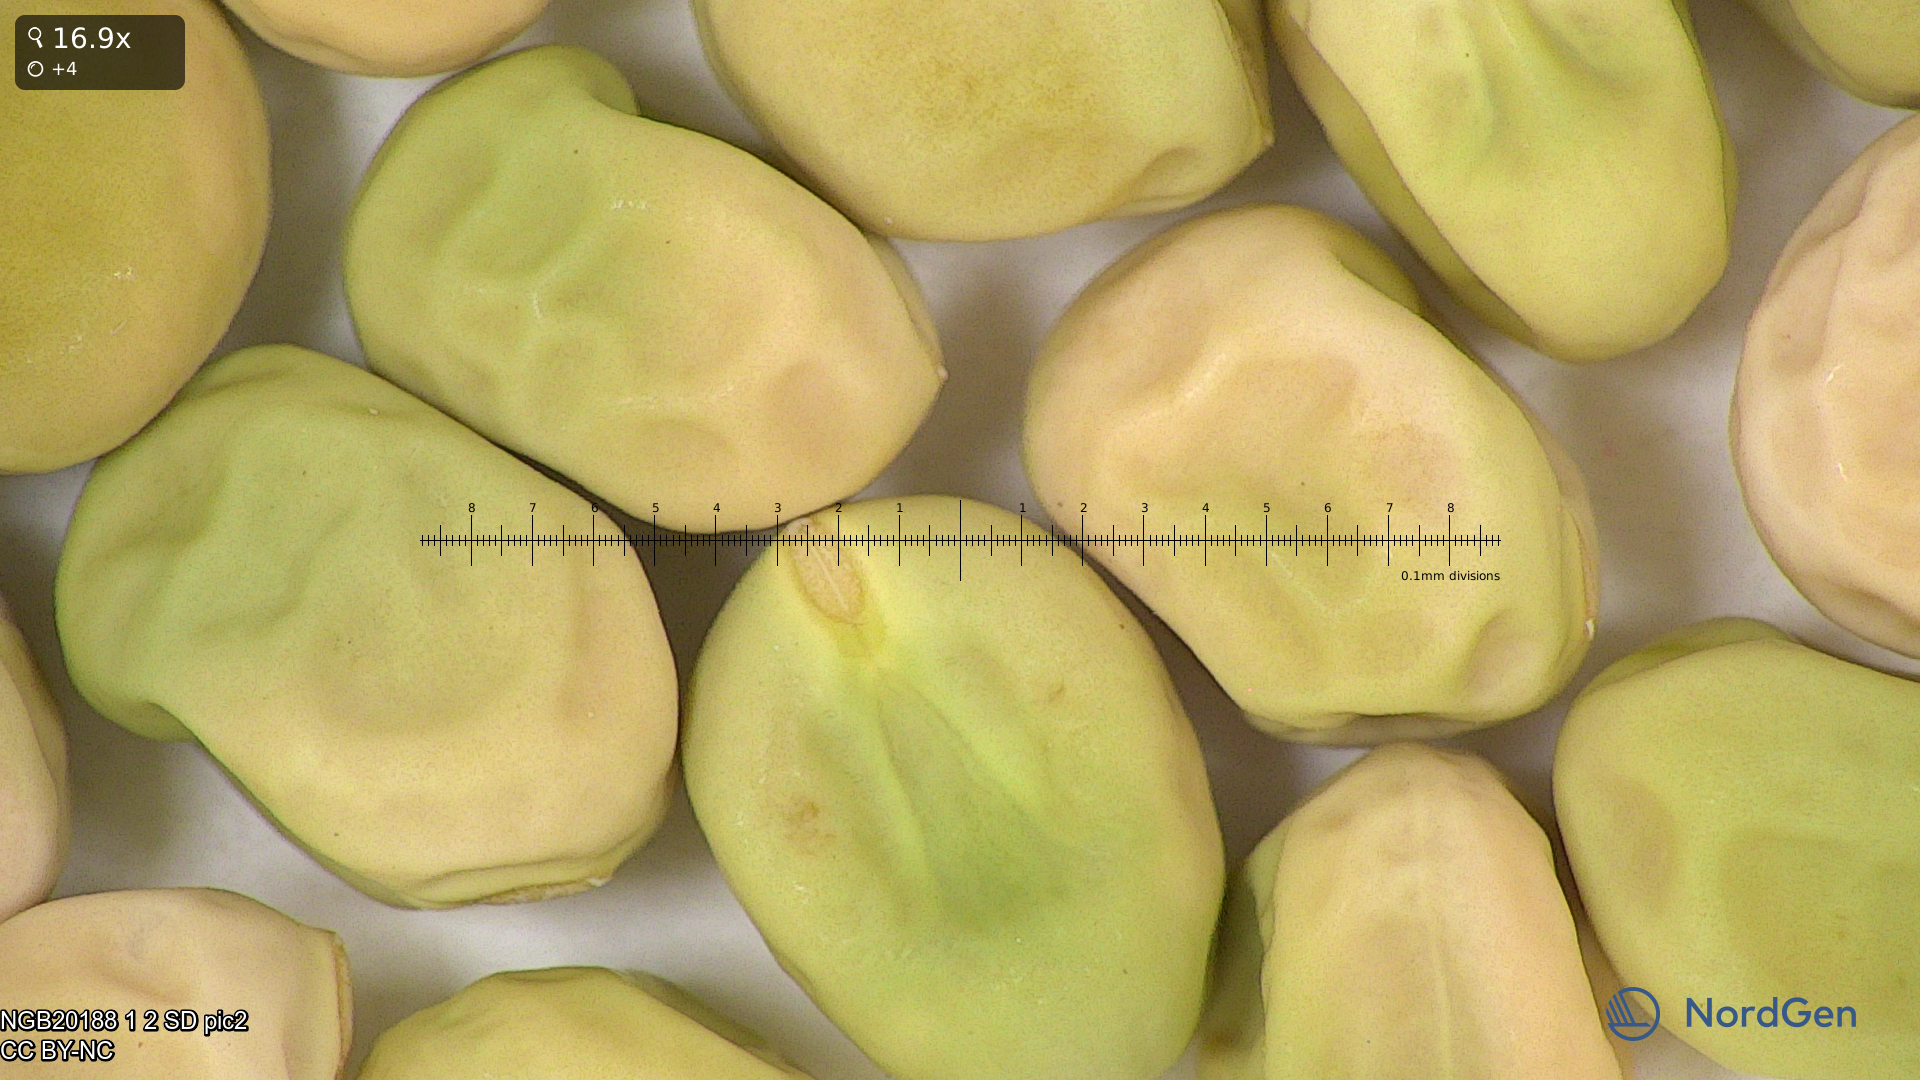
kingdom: Plantae
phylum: Tracheophyta
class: Magnoliopsida
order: Fabales
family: Fabaceae
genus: Lathyrus
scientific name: Lathyrus oleraceus
